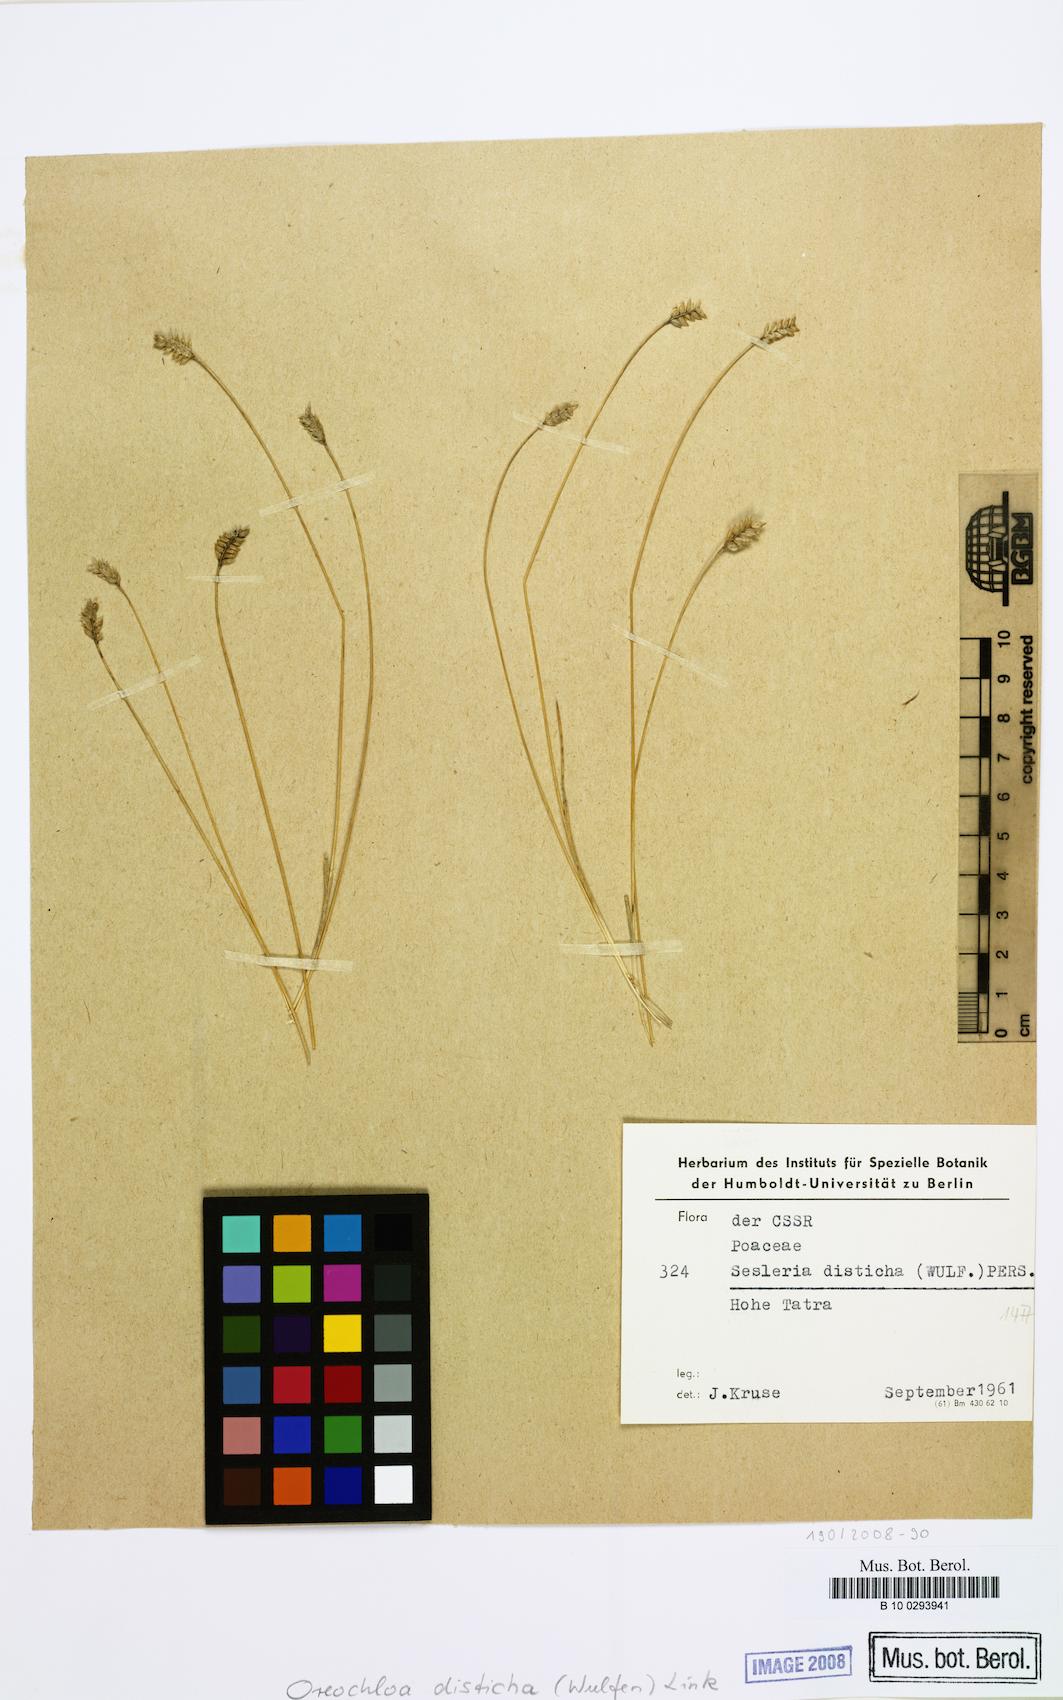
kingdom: Plantae
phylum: Tracheophyta
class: Liliopsida
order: Poales
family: Poaceae
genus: Oreochloa
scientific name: Oreochloa disticha
